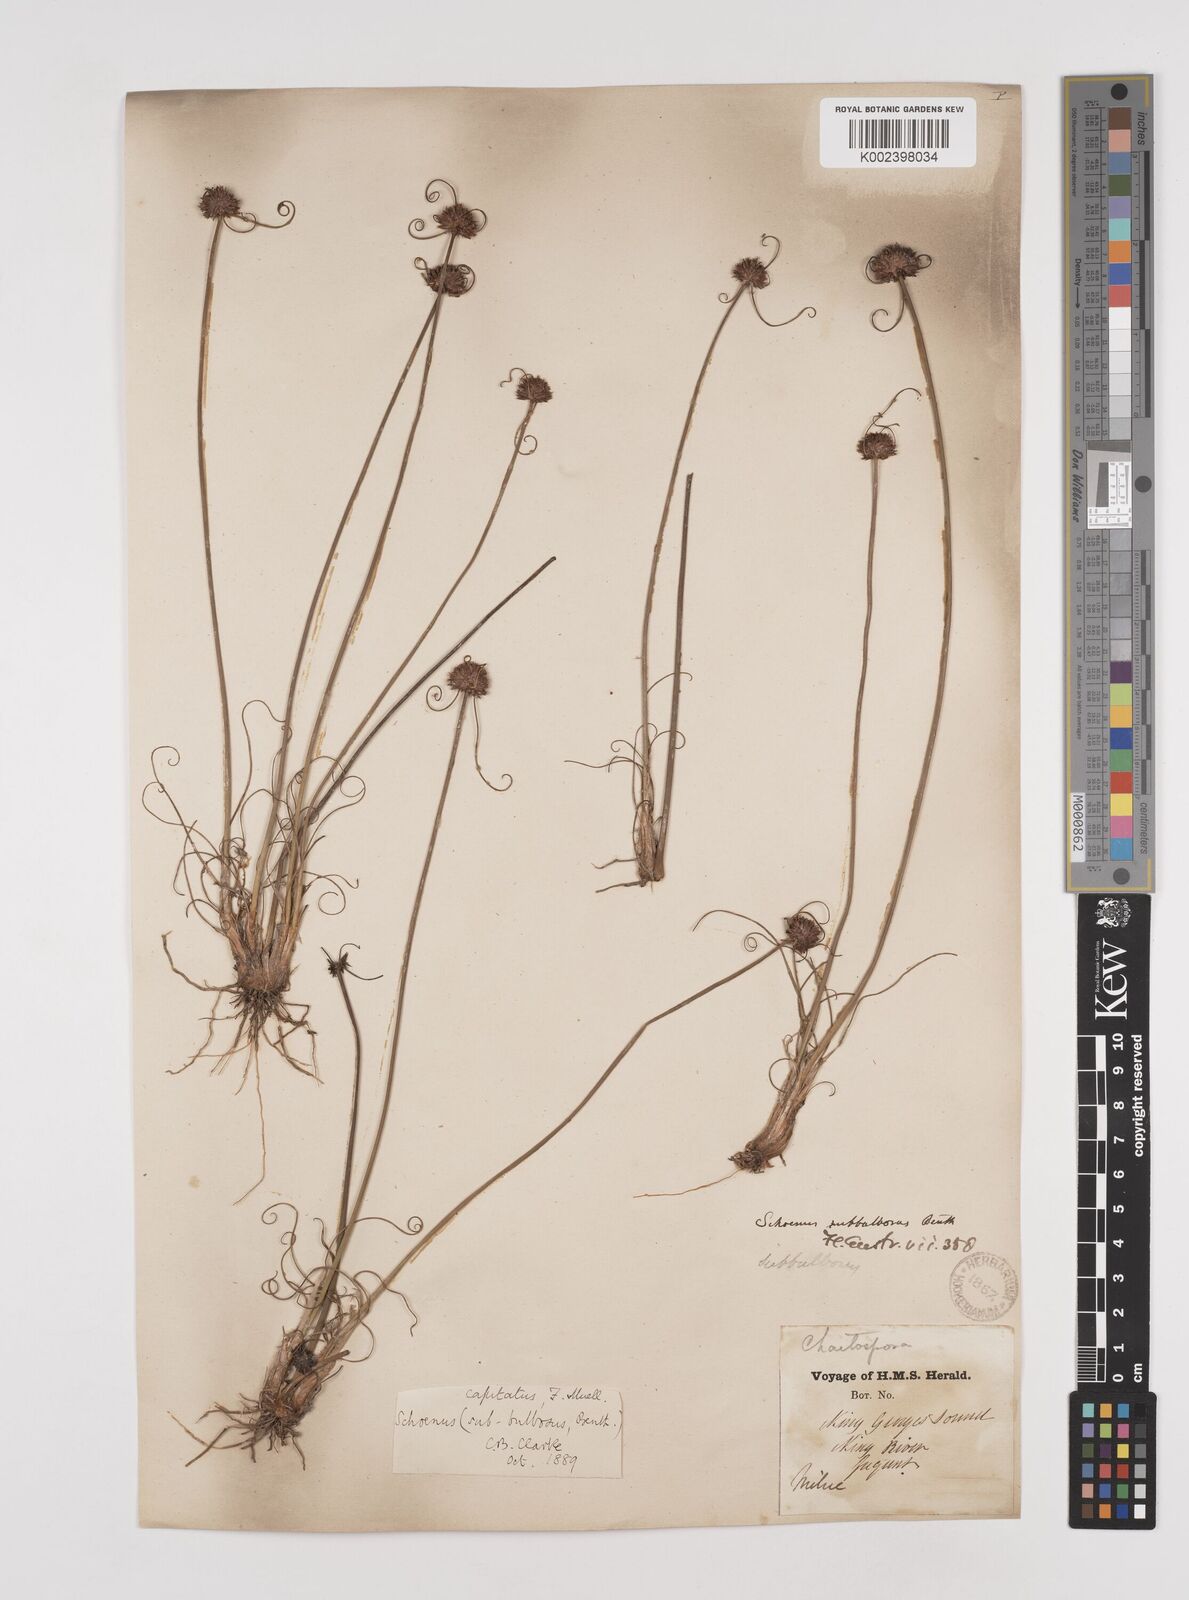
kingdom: Plantae
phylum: Tracheophyta
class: Liliopsida
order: Poales
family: Cyperaceae
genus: Schoenus
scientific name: Schoenus subbulbosus
